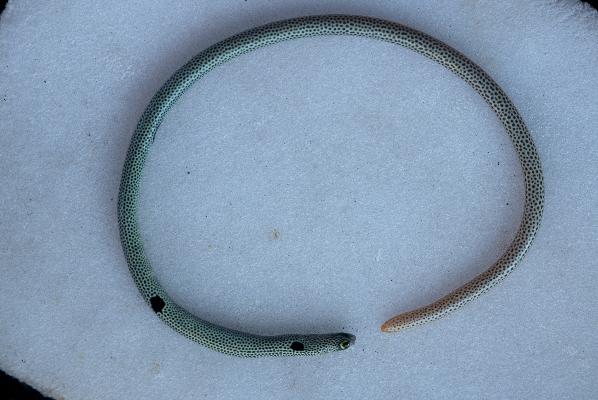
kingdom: Animalia
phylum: Chordata
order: Anguilliformes
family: Congridae
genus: Heteroconger
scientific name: Heteroconger hassi
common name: Spotted garden eel
